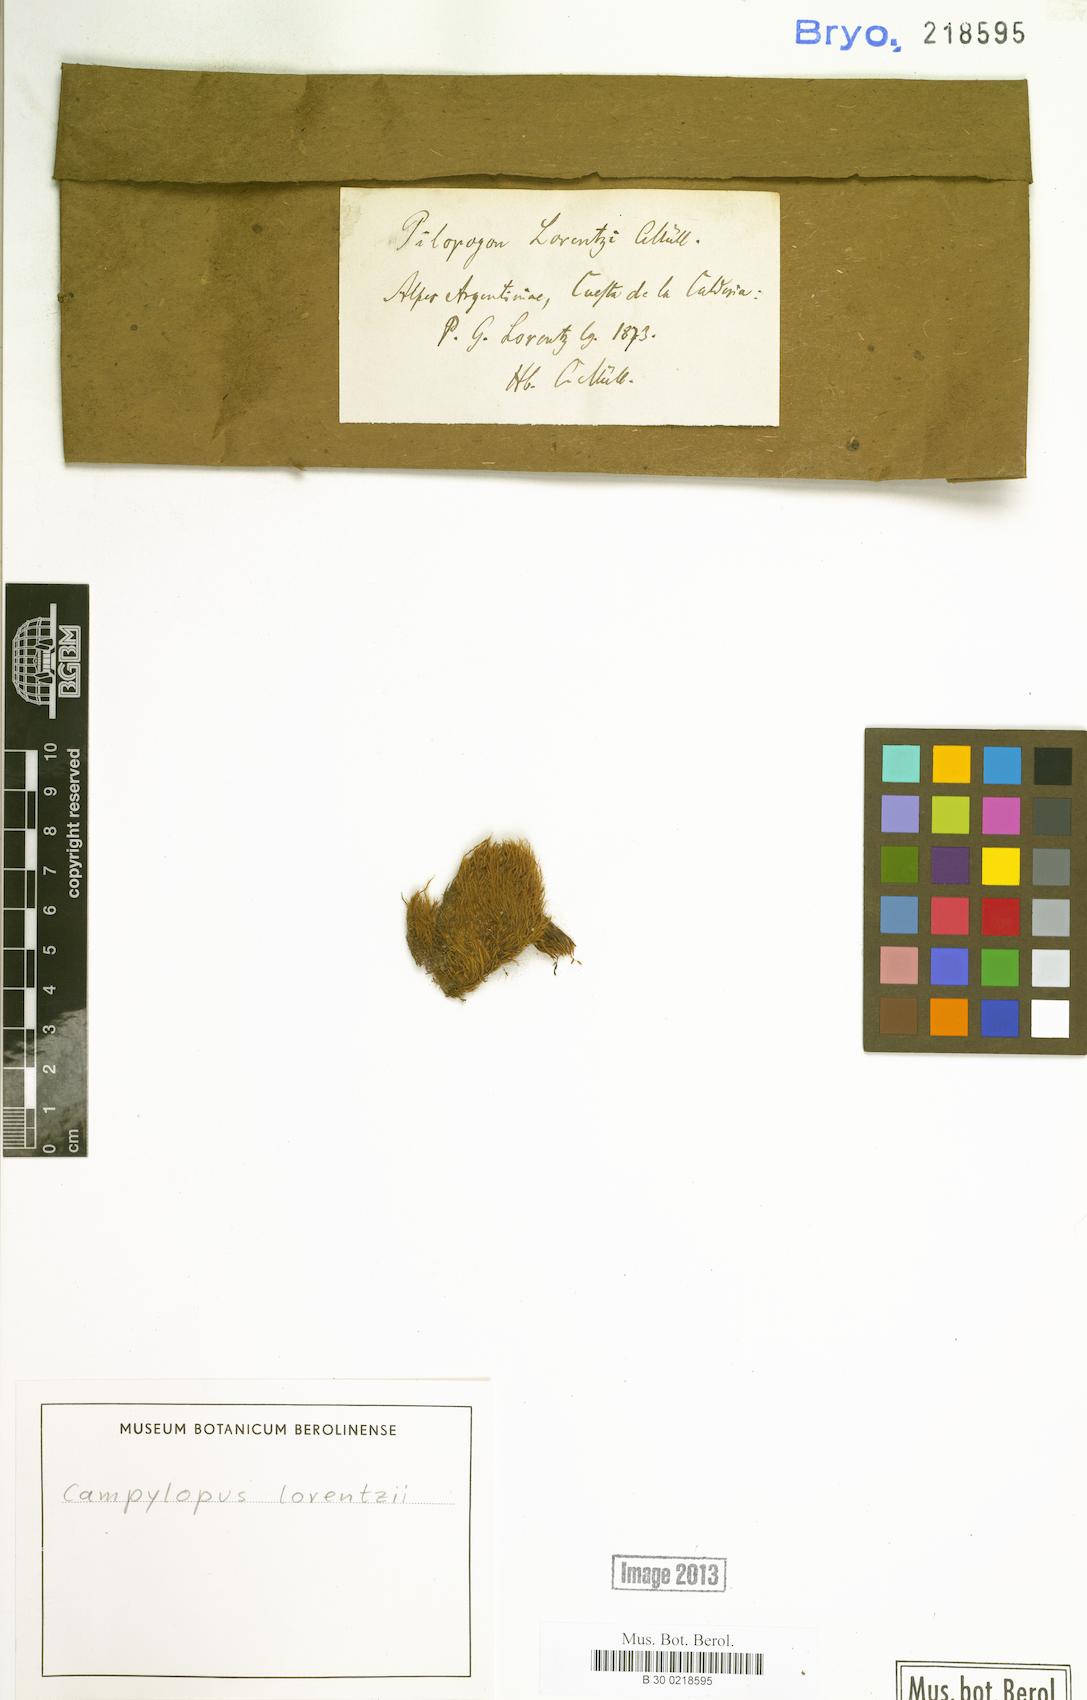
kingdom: Plantae
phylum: Bryophyta
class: Bryopsida
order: Dicranales
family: Leucobryaceae
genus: Campylopus
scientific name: Campylopus exasperatus
